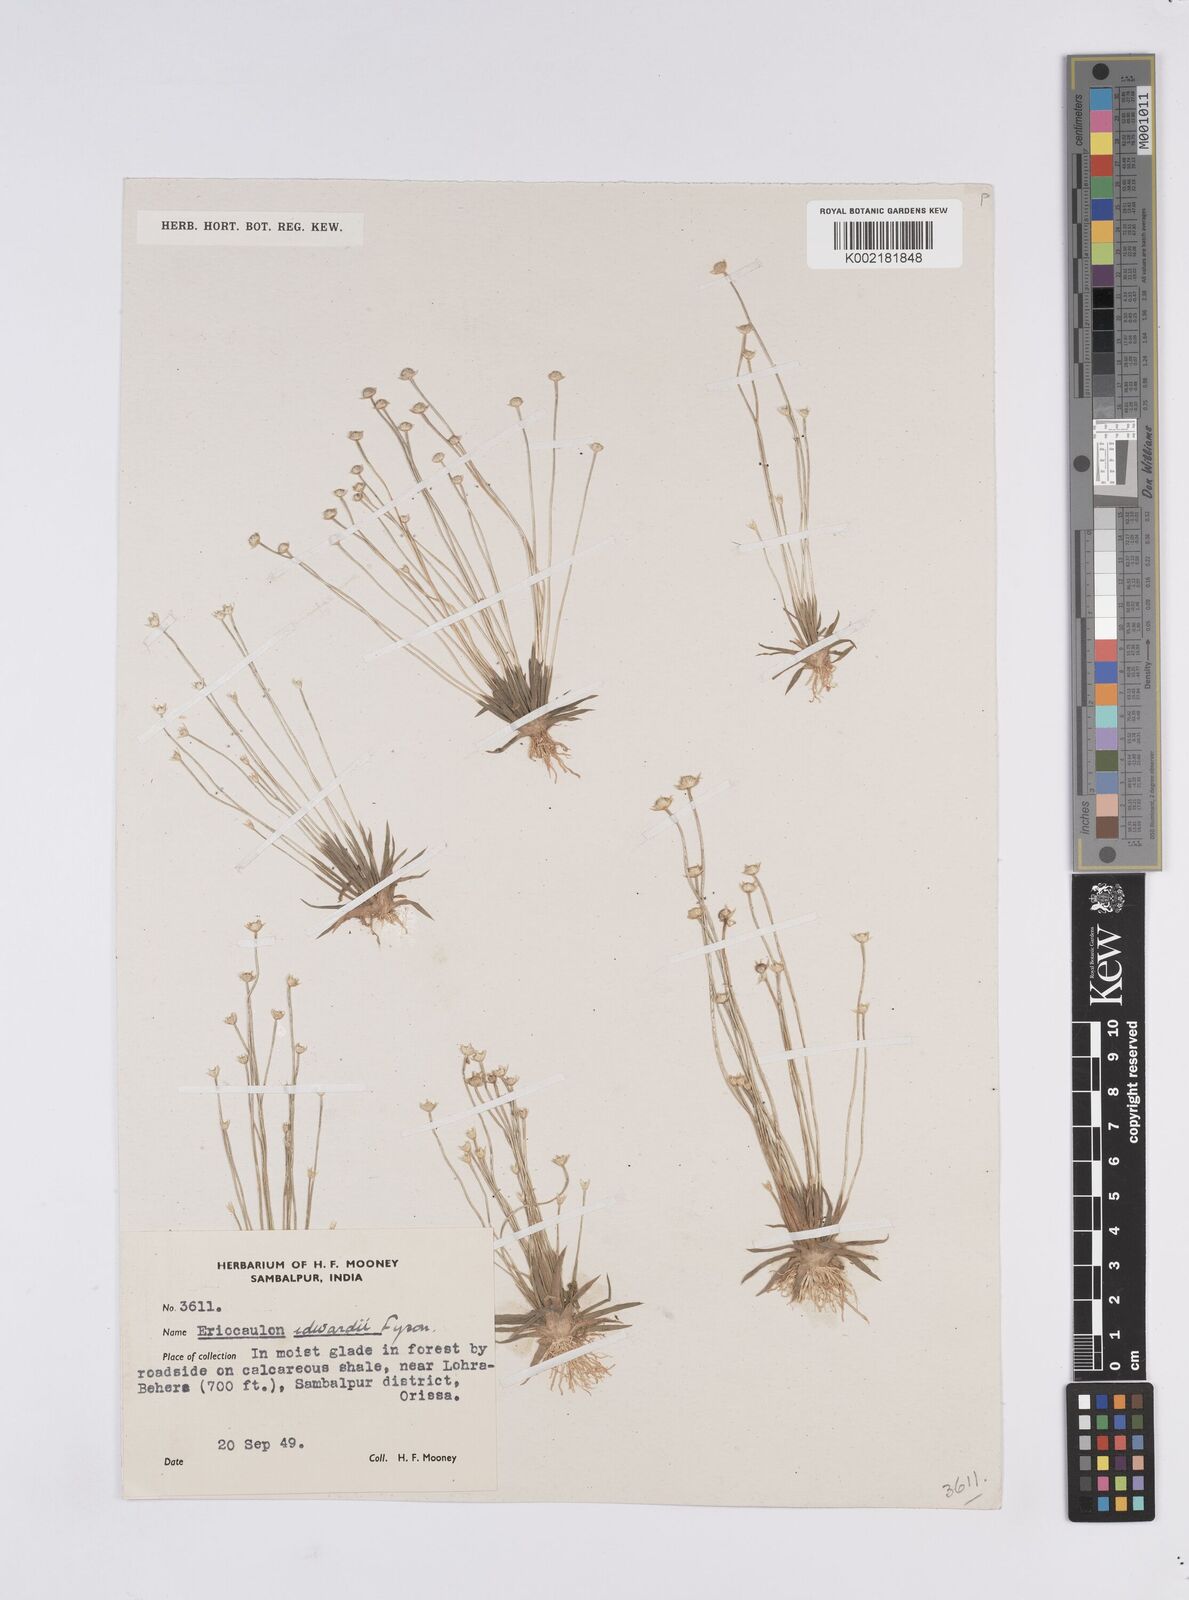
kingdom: Plantae
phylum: Tracheophyta
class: Liliopsida
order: Poales
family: Eriocaulaceae
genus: Eriocaulon
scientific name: Eriocaulon edwardii
